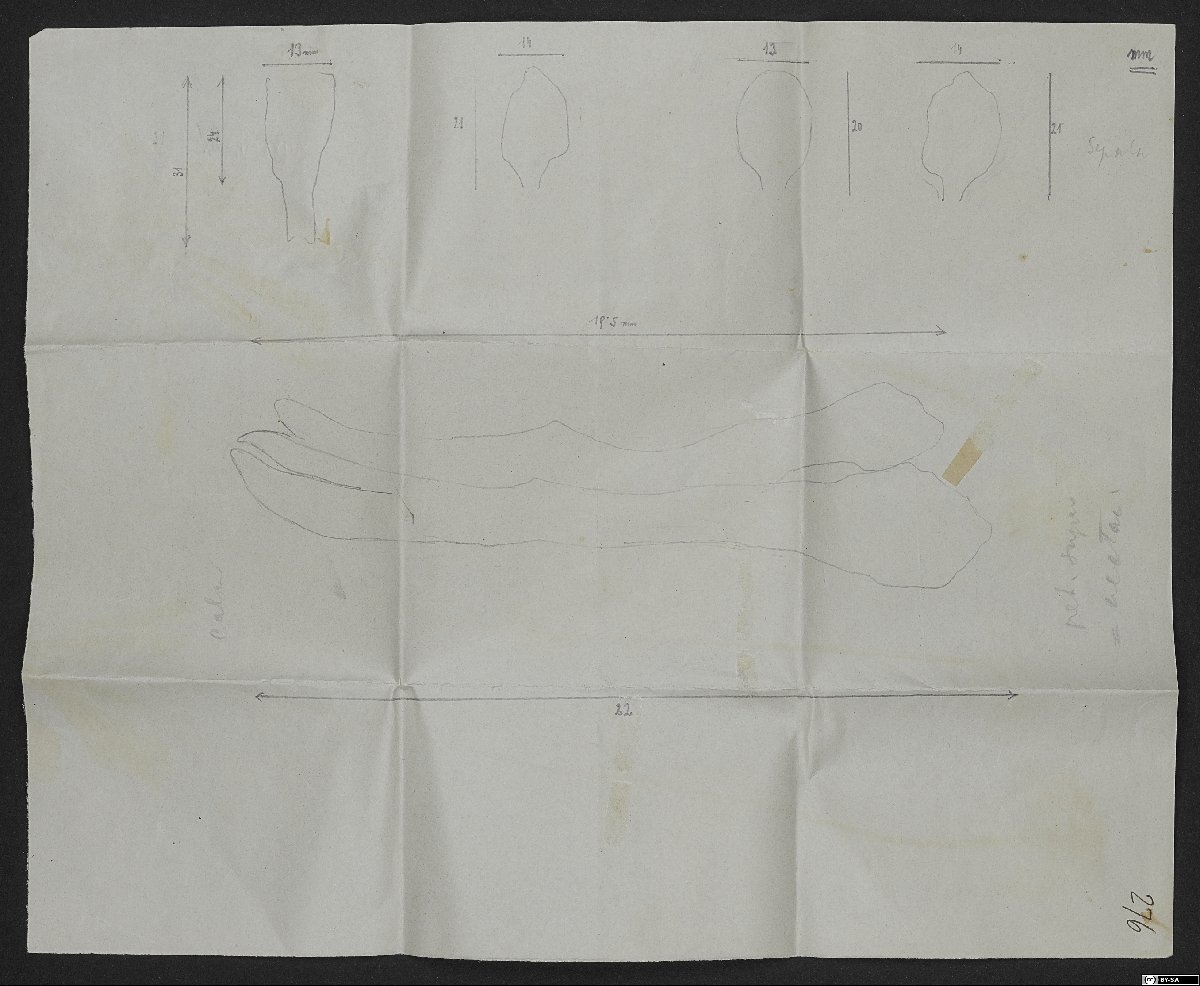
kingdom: Plantae
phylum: Tracheophyta
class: Magnoliopsida
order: Ranunculales
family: Ranunculaceae
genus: Delphinium
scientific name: Delphinium brunonianum
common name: Musk larkspur
